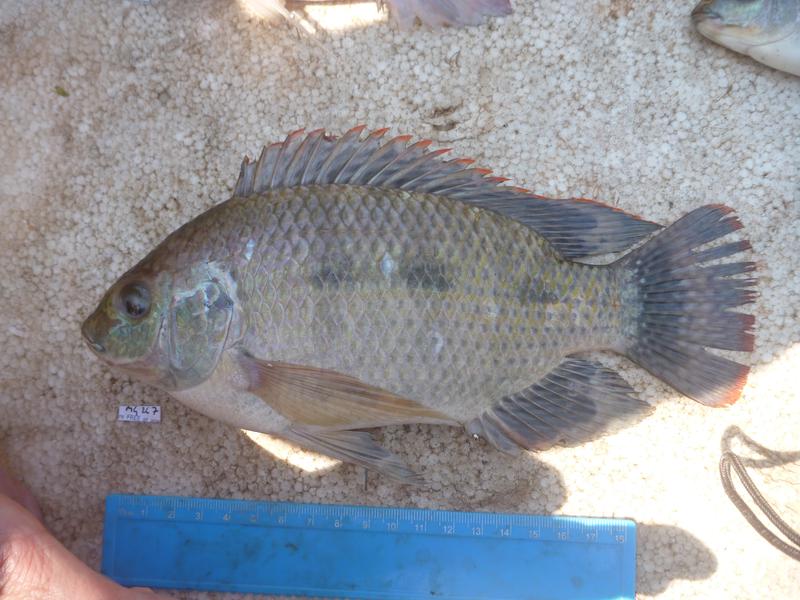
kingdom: Animalia
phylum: Chordata
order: Perciformes
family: Cichlidae
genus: Oreochromis
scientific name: Oreochromis upembae
